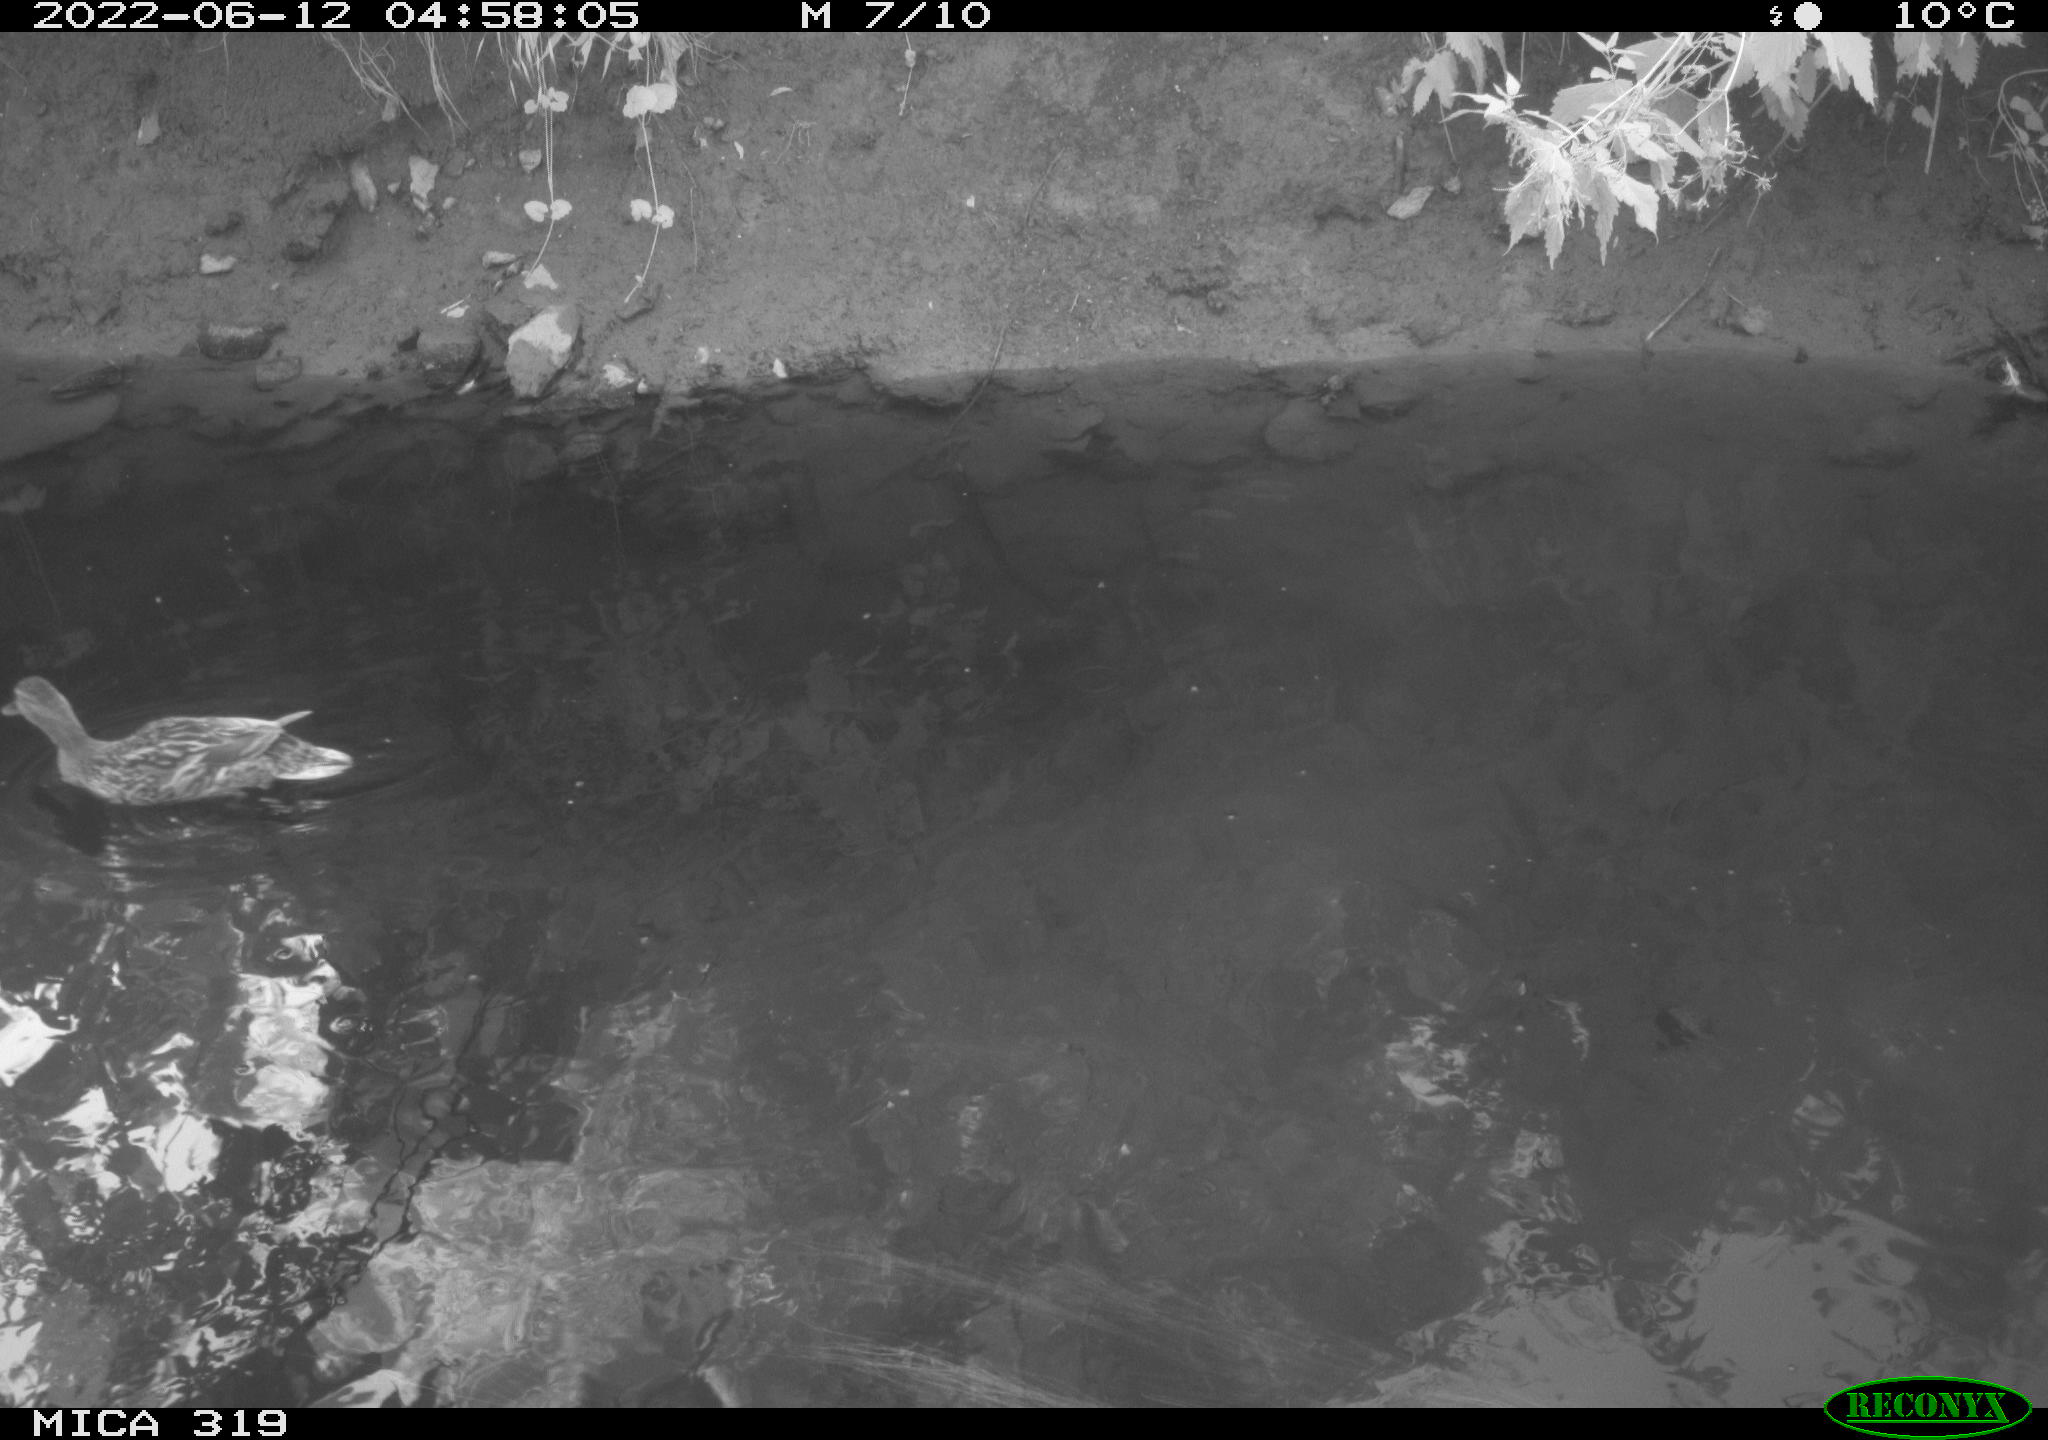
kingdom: Animalia
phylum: Chordata
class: Aves
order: Anseriformes
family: Anatidae
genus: Anas
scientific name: Anas
